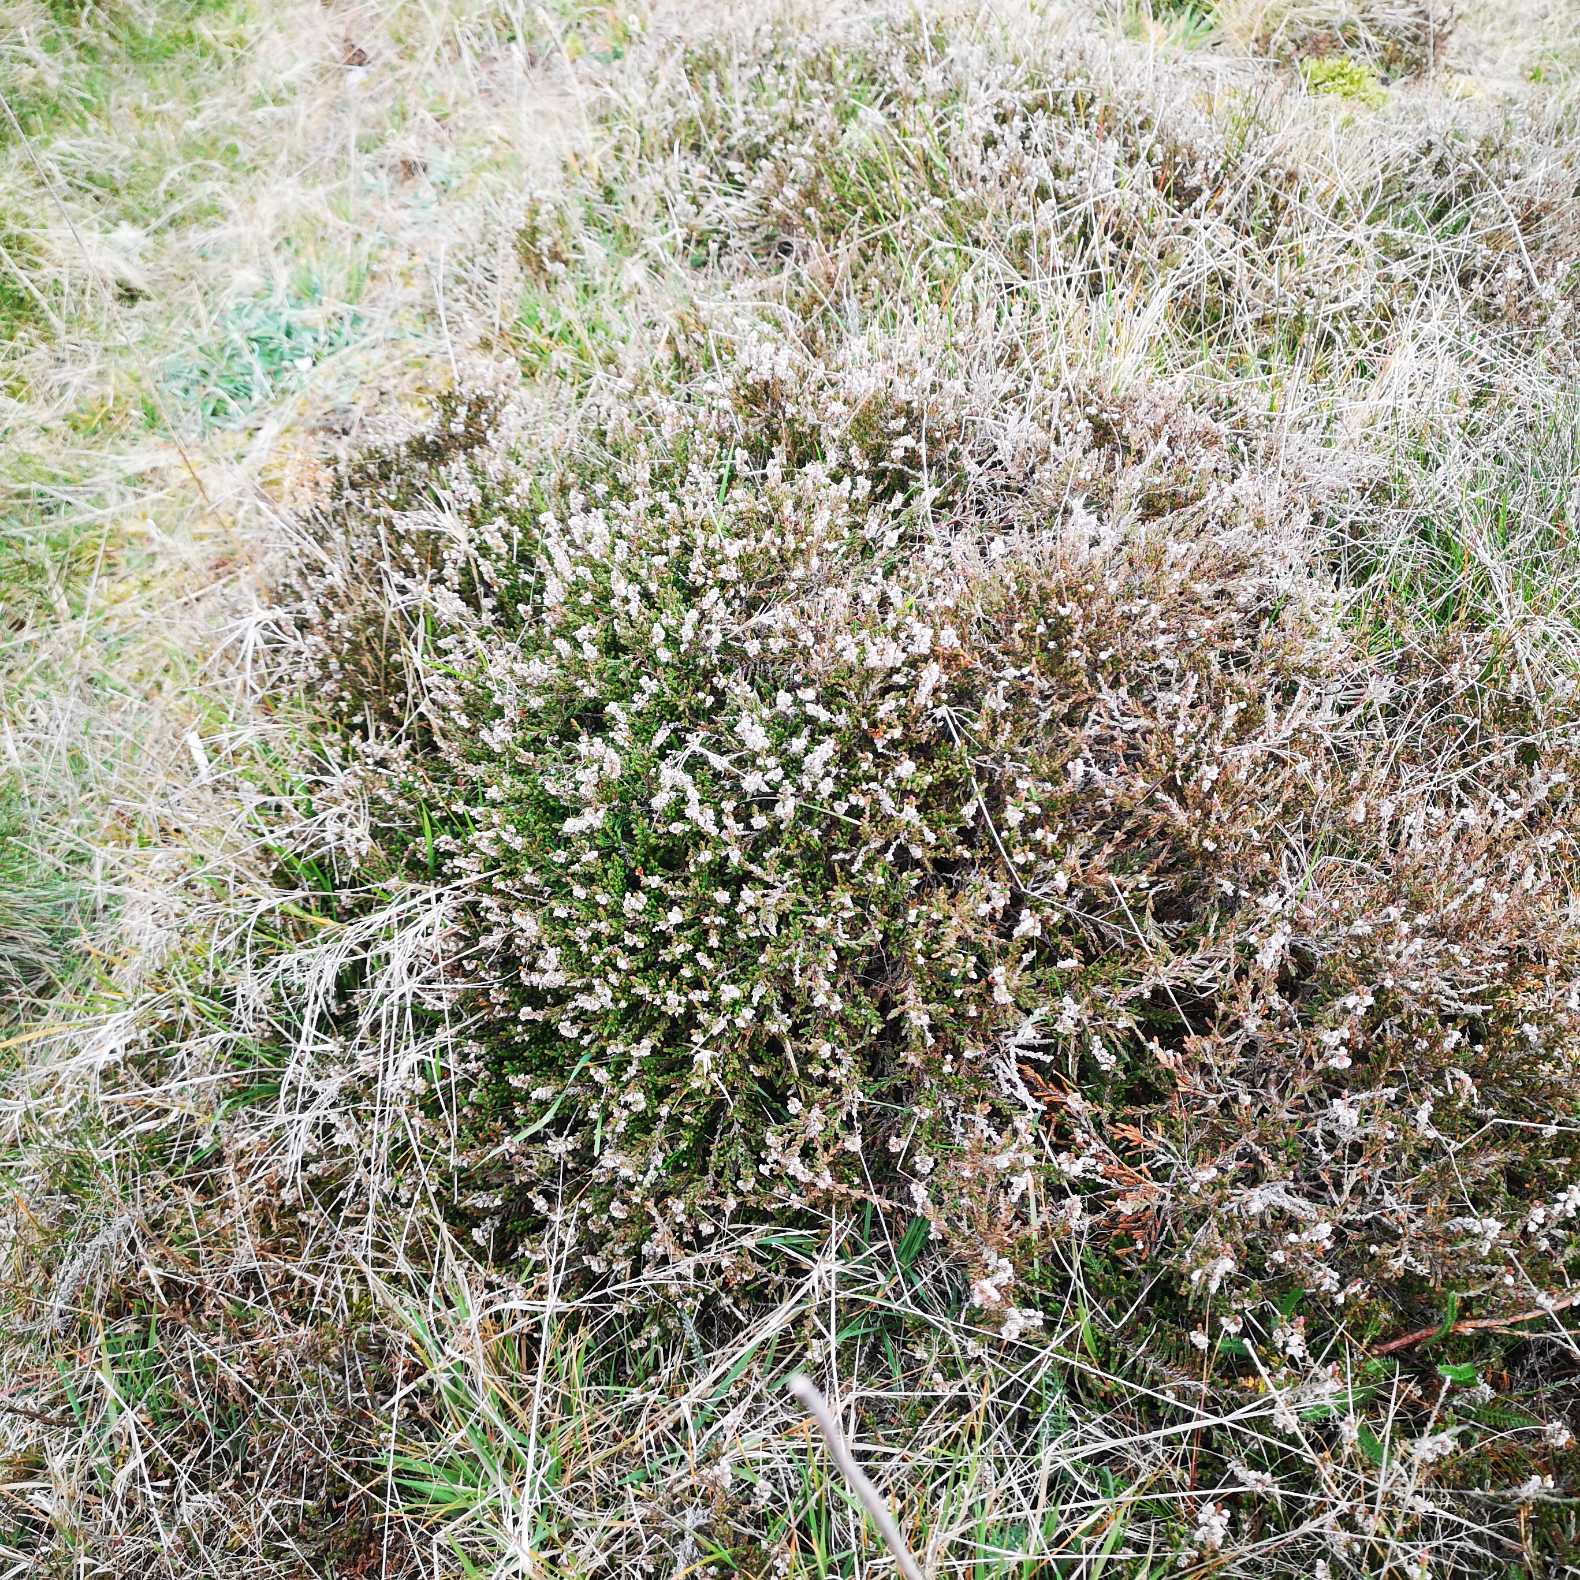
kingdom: Plantae
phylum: Tracheophyta
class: Magnoliopsida
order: Ericales
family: Ericaceae
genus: Calluna
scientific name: Calluna vulgaris
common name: Hedelyng
